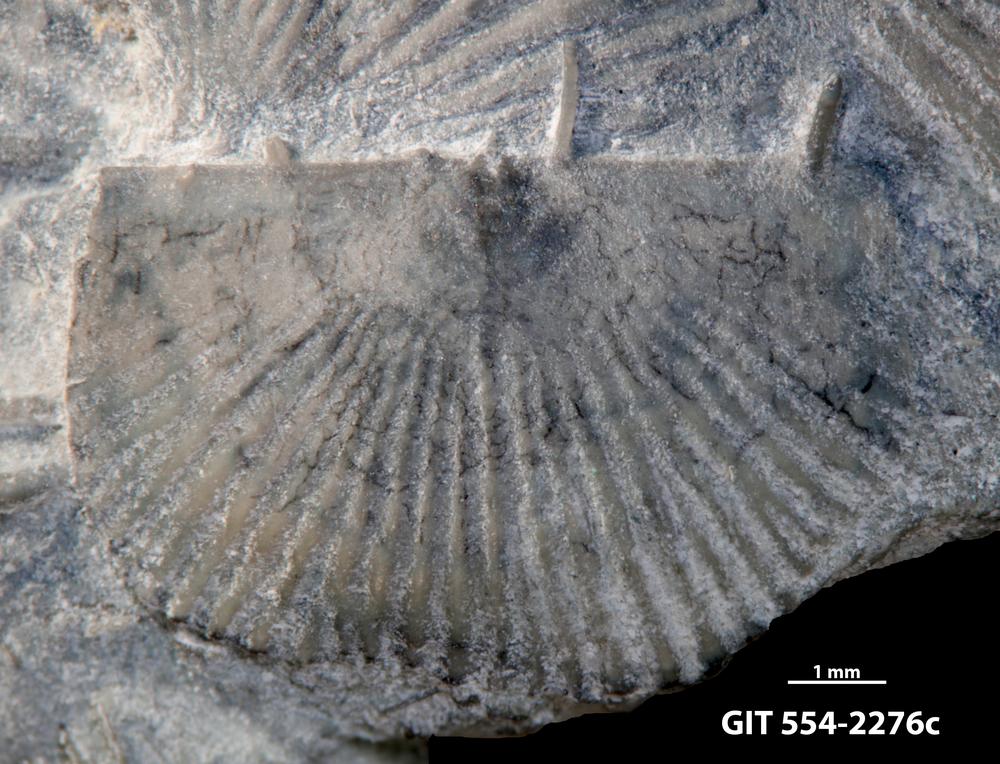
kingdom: Animalia
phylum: Brachiopoda
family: Strophochonetidae
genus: Protochonetes
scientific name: Protochonetes piltenensis
